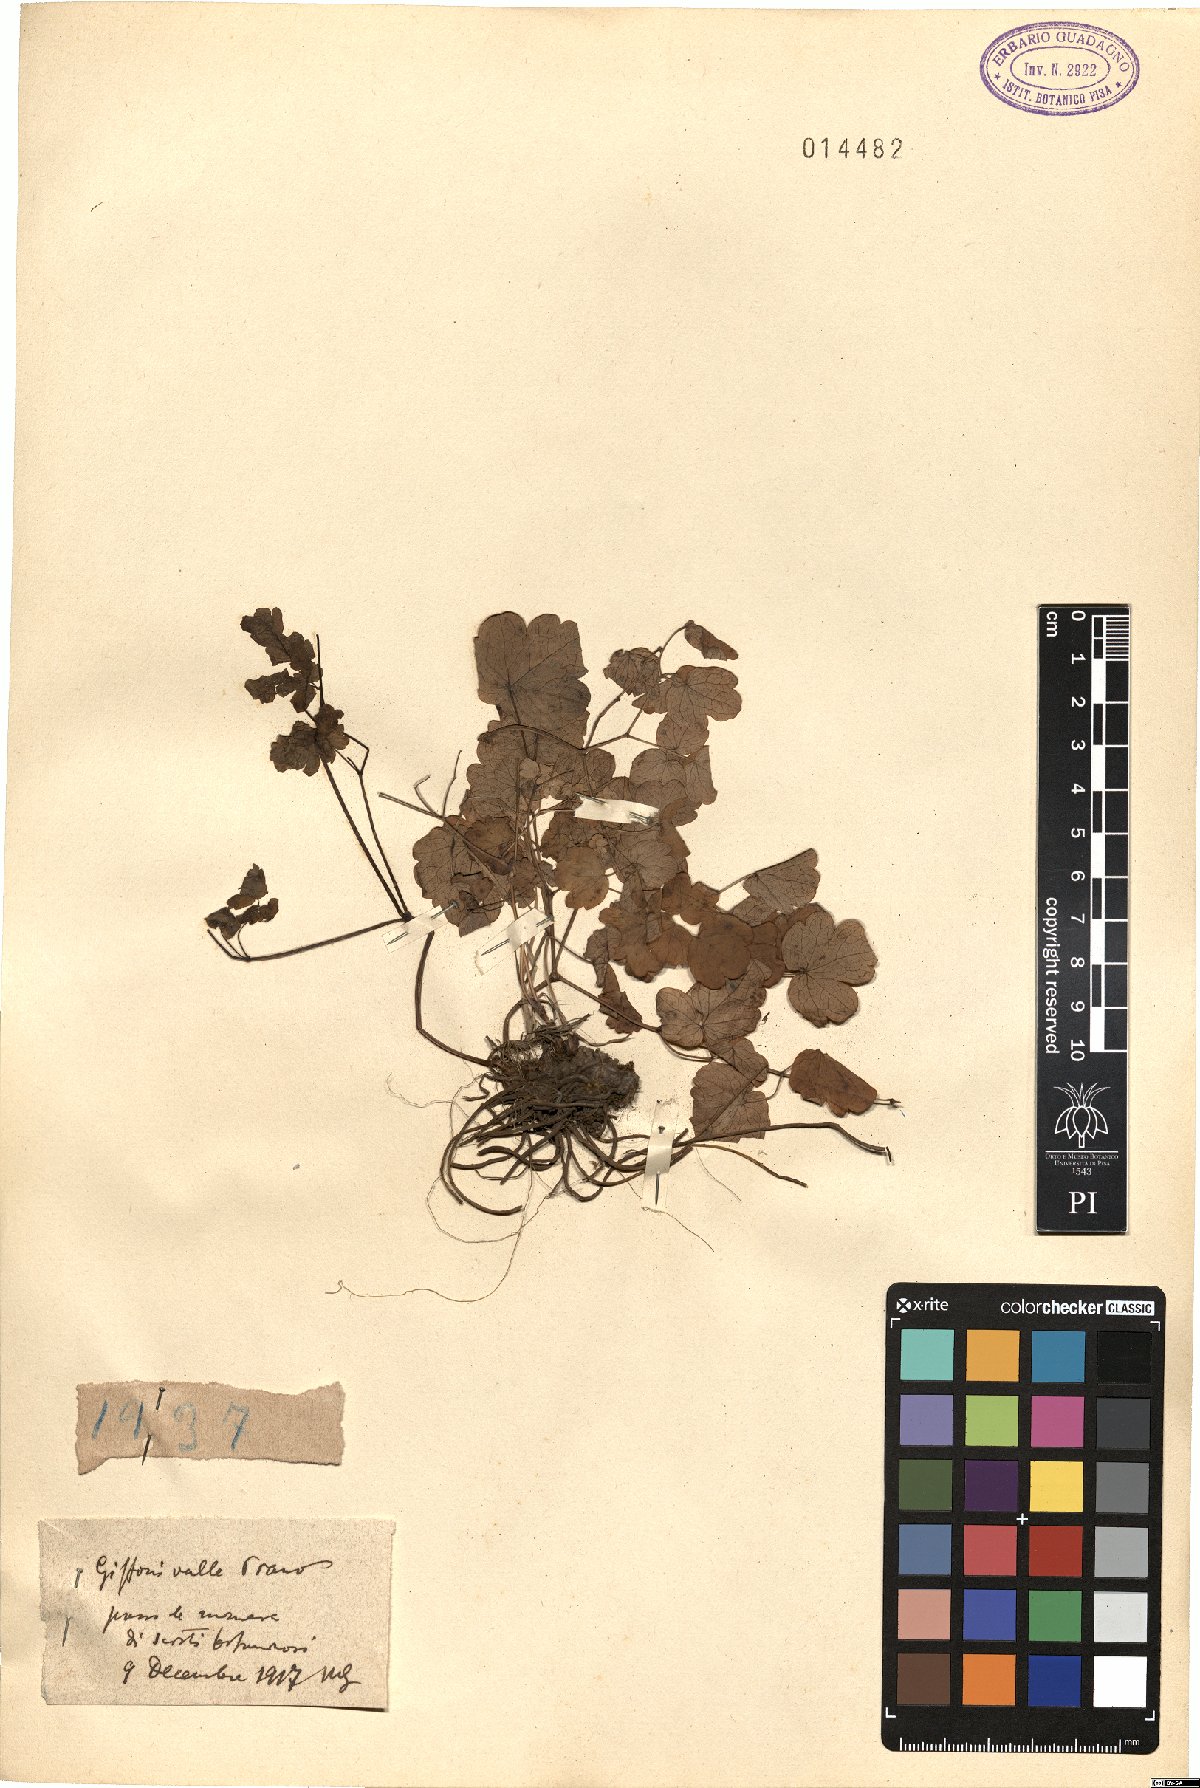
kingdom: Plantae
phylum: Tracheophyta
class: Magnoliopsida
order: Ranunculales
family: Ranunculaceae
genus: Thalictrum
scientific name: Thalictrum
